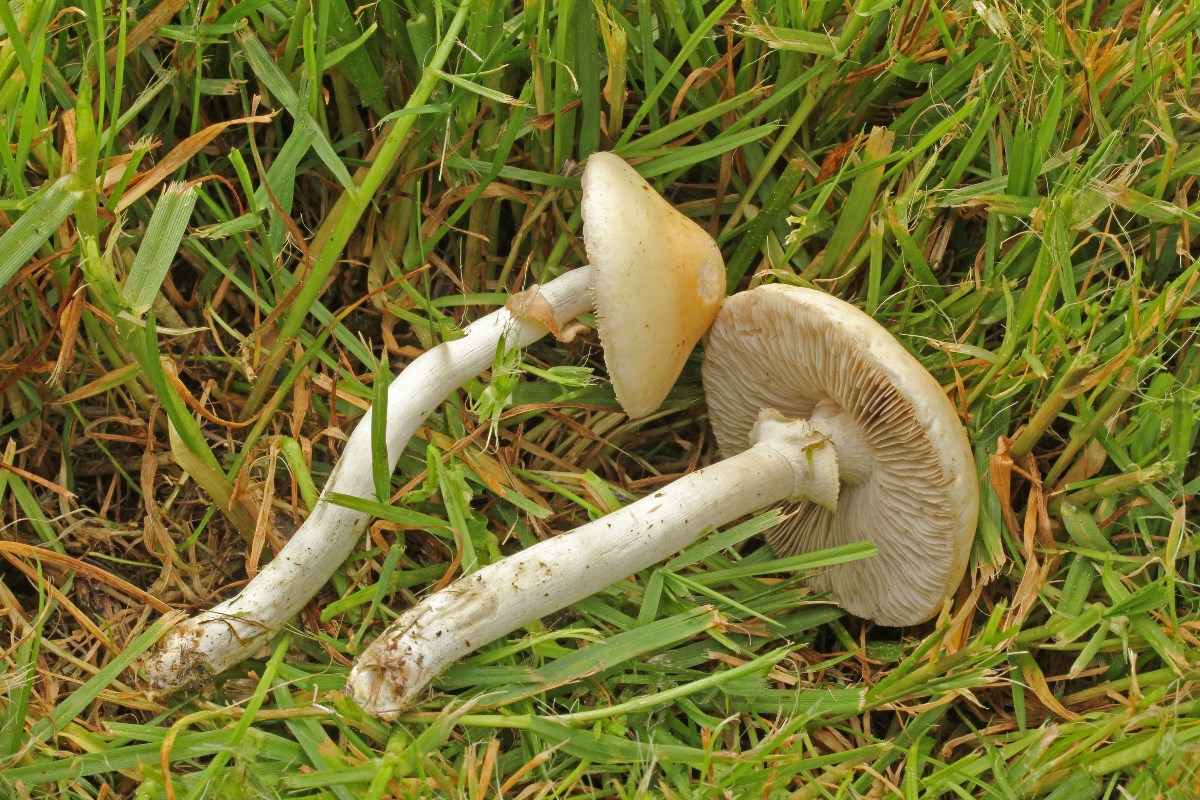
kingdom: Fungi
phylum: Basidiomycota
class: Agaricomycetes
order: Agaricales
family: Strophariaceae
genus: Agrocybe
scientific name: Agrocybe praecox
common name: tidlig agerhat
